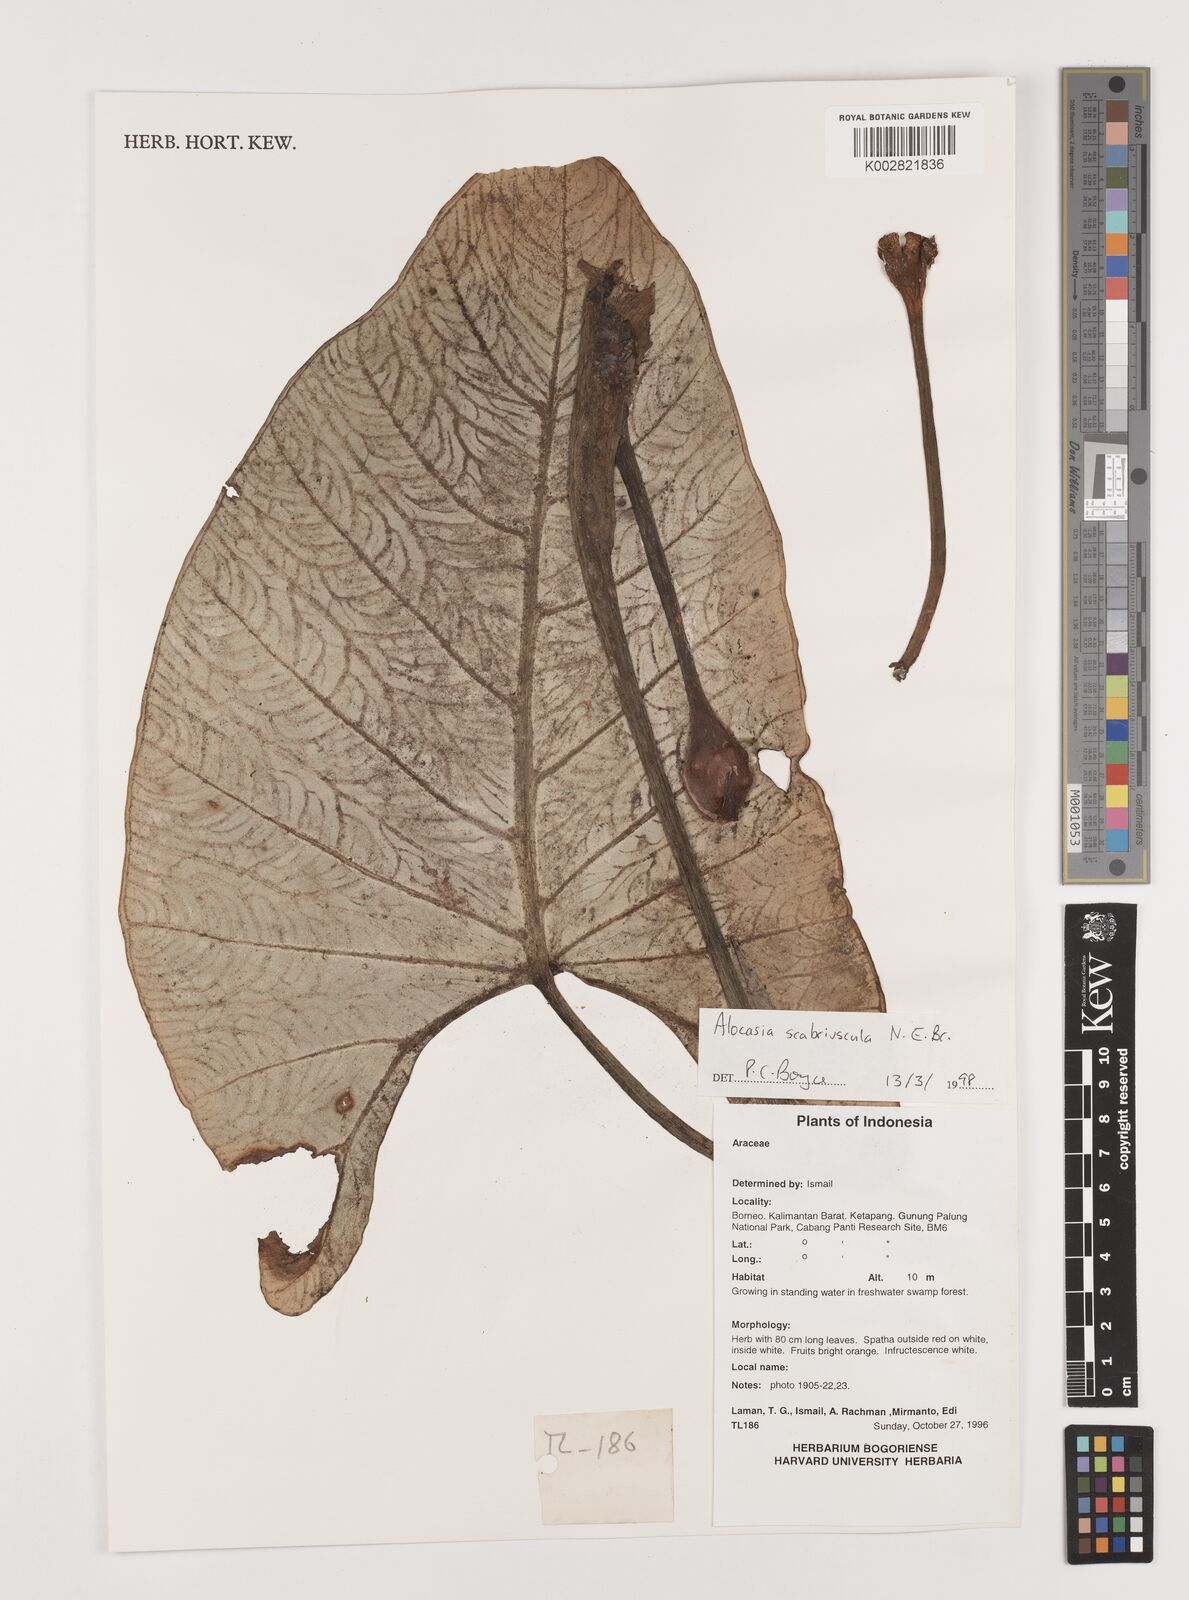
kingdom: Plantae
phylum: Tracheophyta
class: Liliopsida
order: Alismatales
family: Araceae
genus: Alocasia
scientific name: Alocasia scabriuscula
